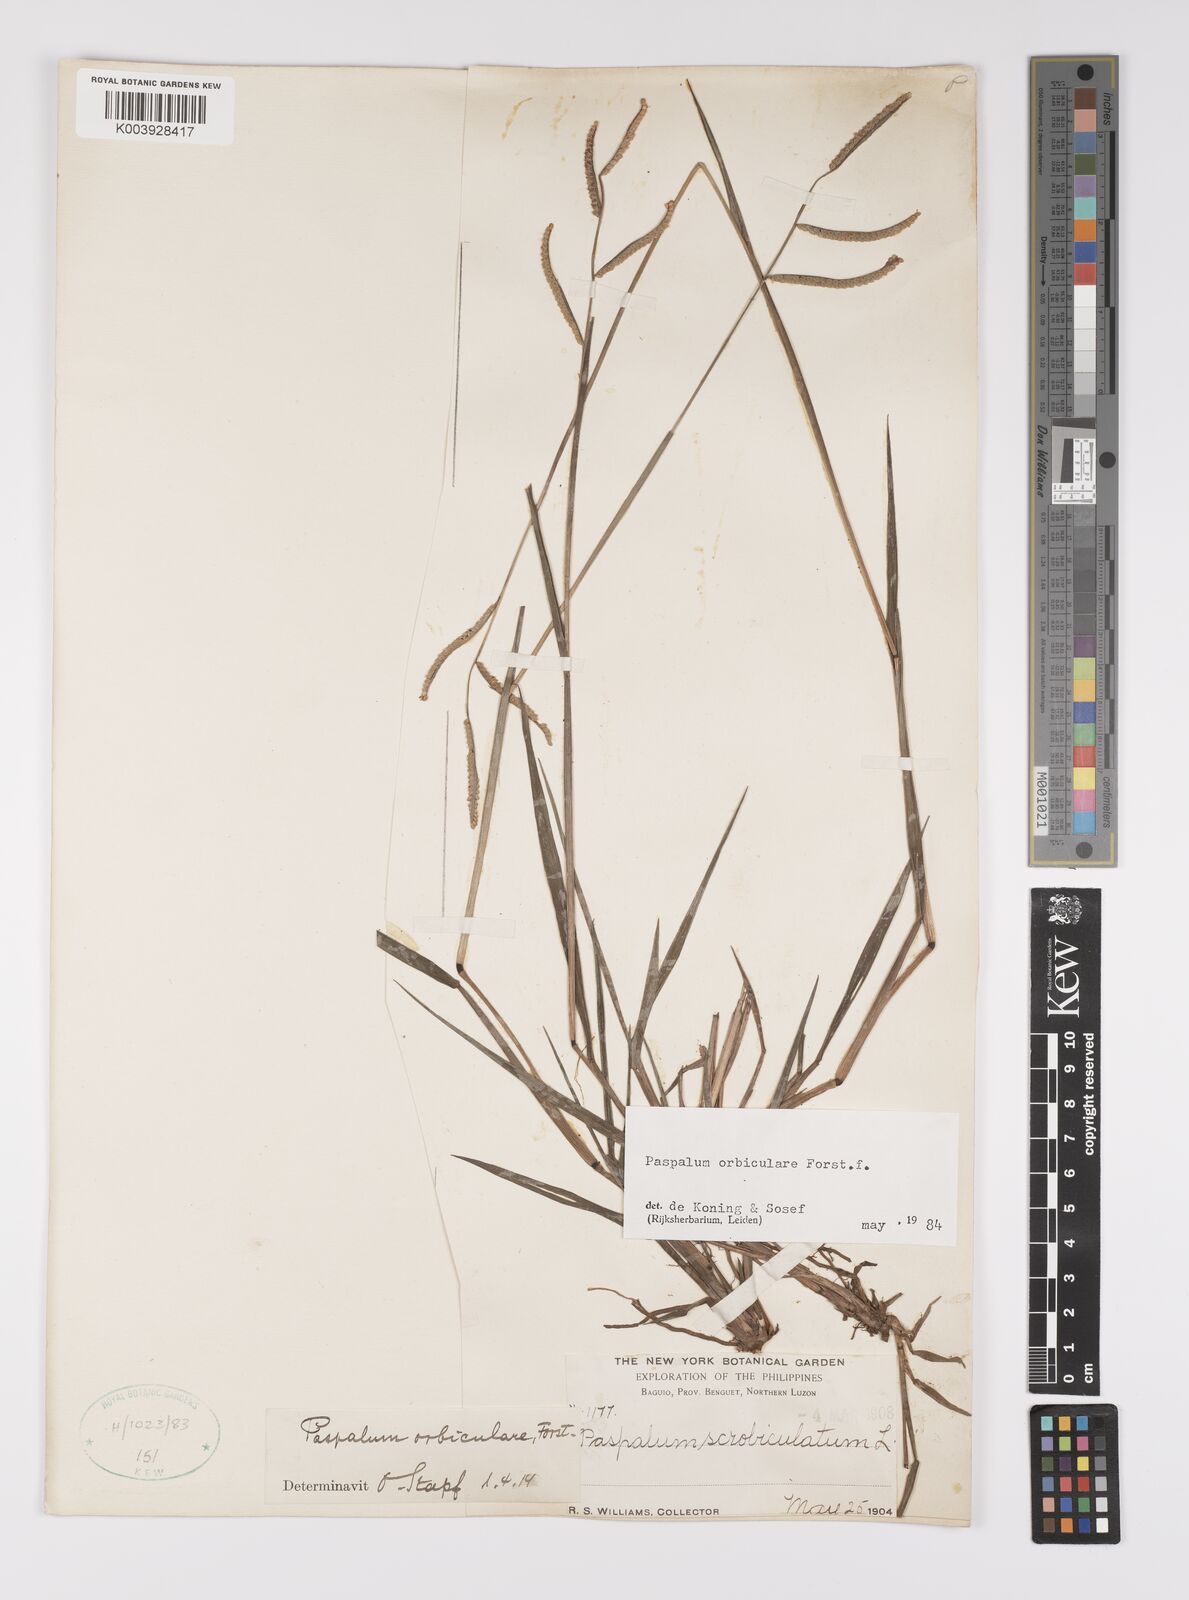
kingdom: Plantae
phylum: Tracheophyta
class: Liliopsida
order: Poales
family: Poaceae
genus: Paspalum
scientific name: Paspalum scrobiculatum
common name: Kodo millet
